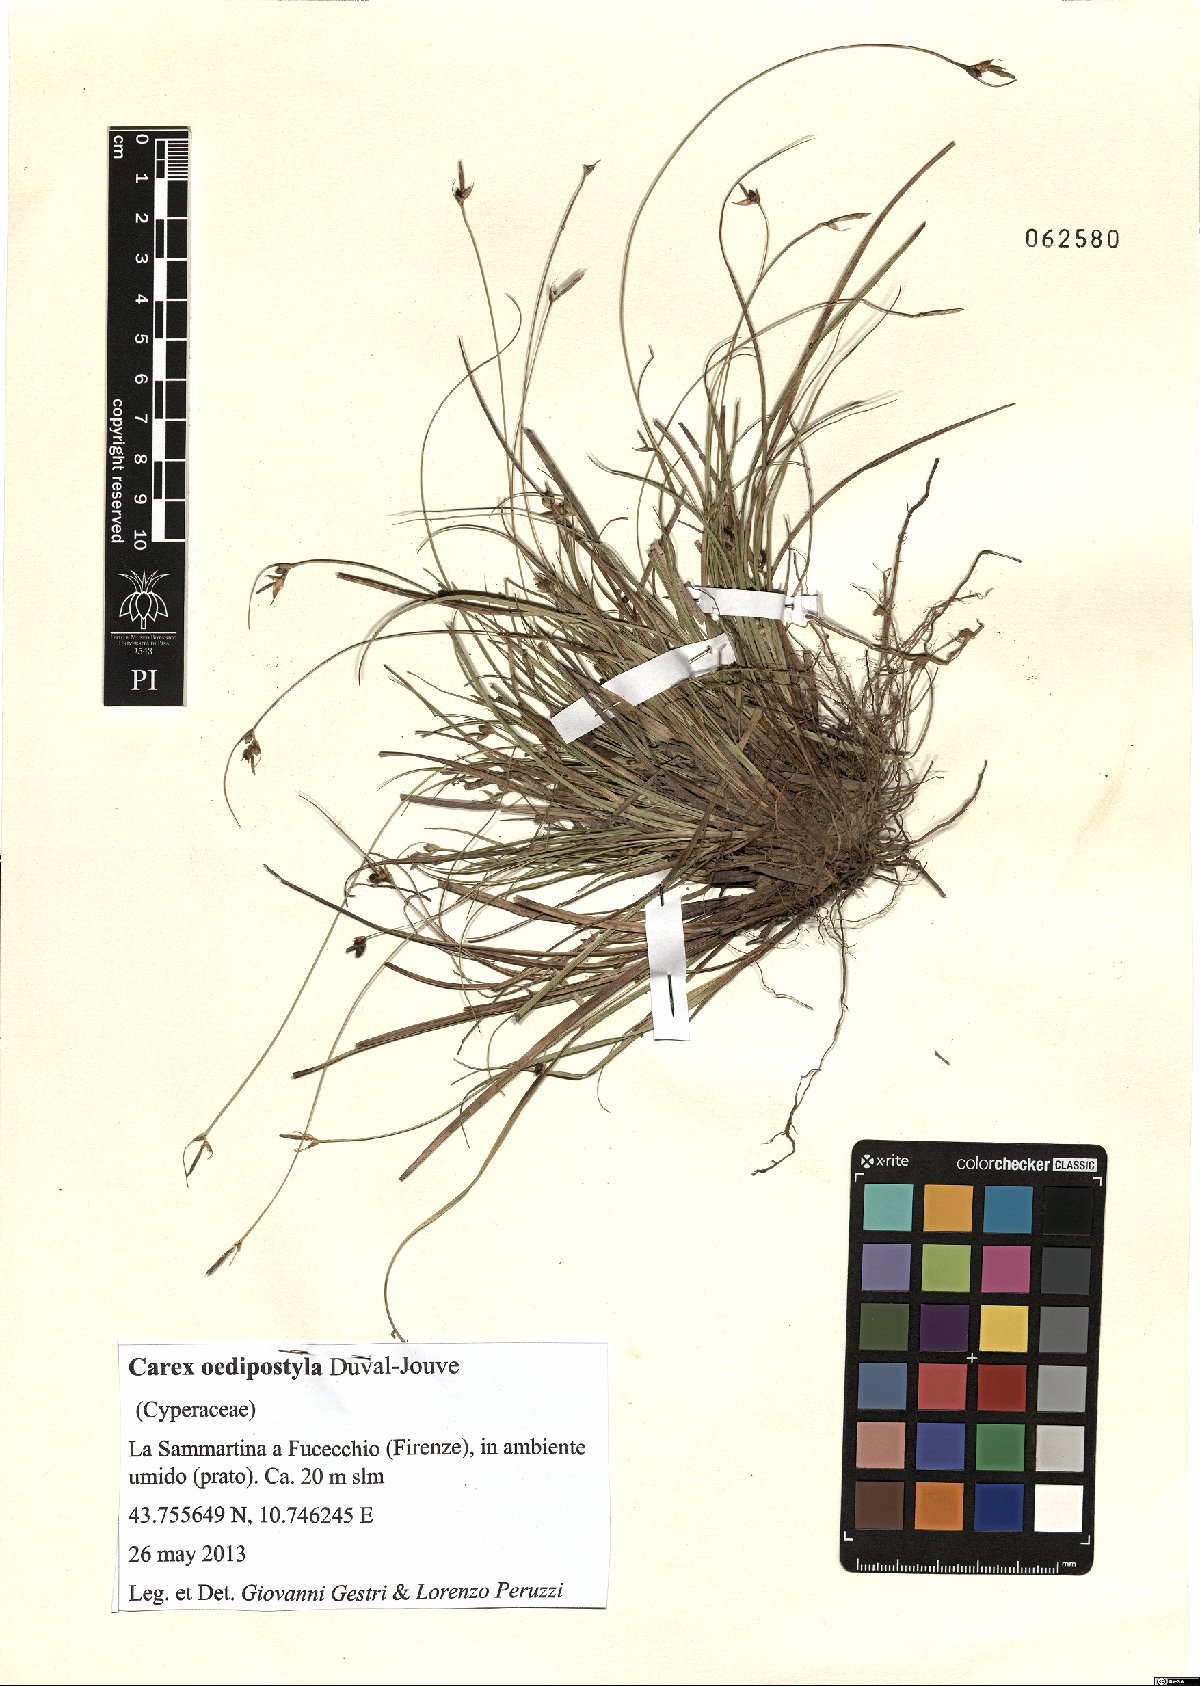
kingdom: Plantae
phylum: Tracheophyta
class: Liliopsida
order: Poales
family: Cyperaceae
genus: Carex
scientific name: Carex oedipostyla
